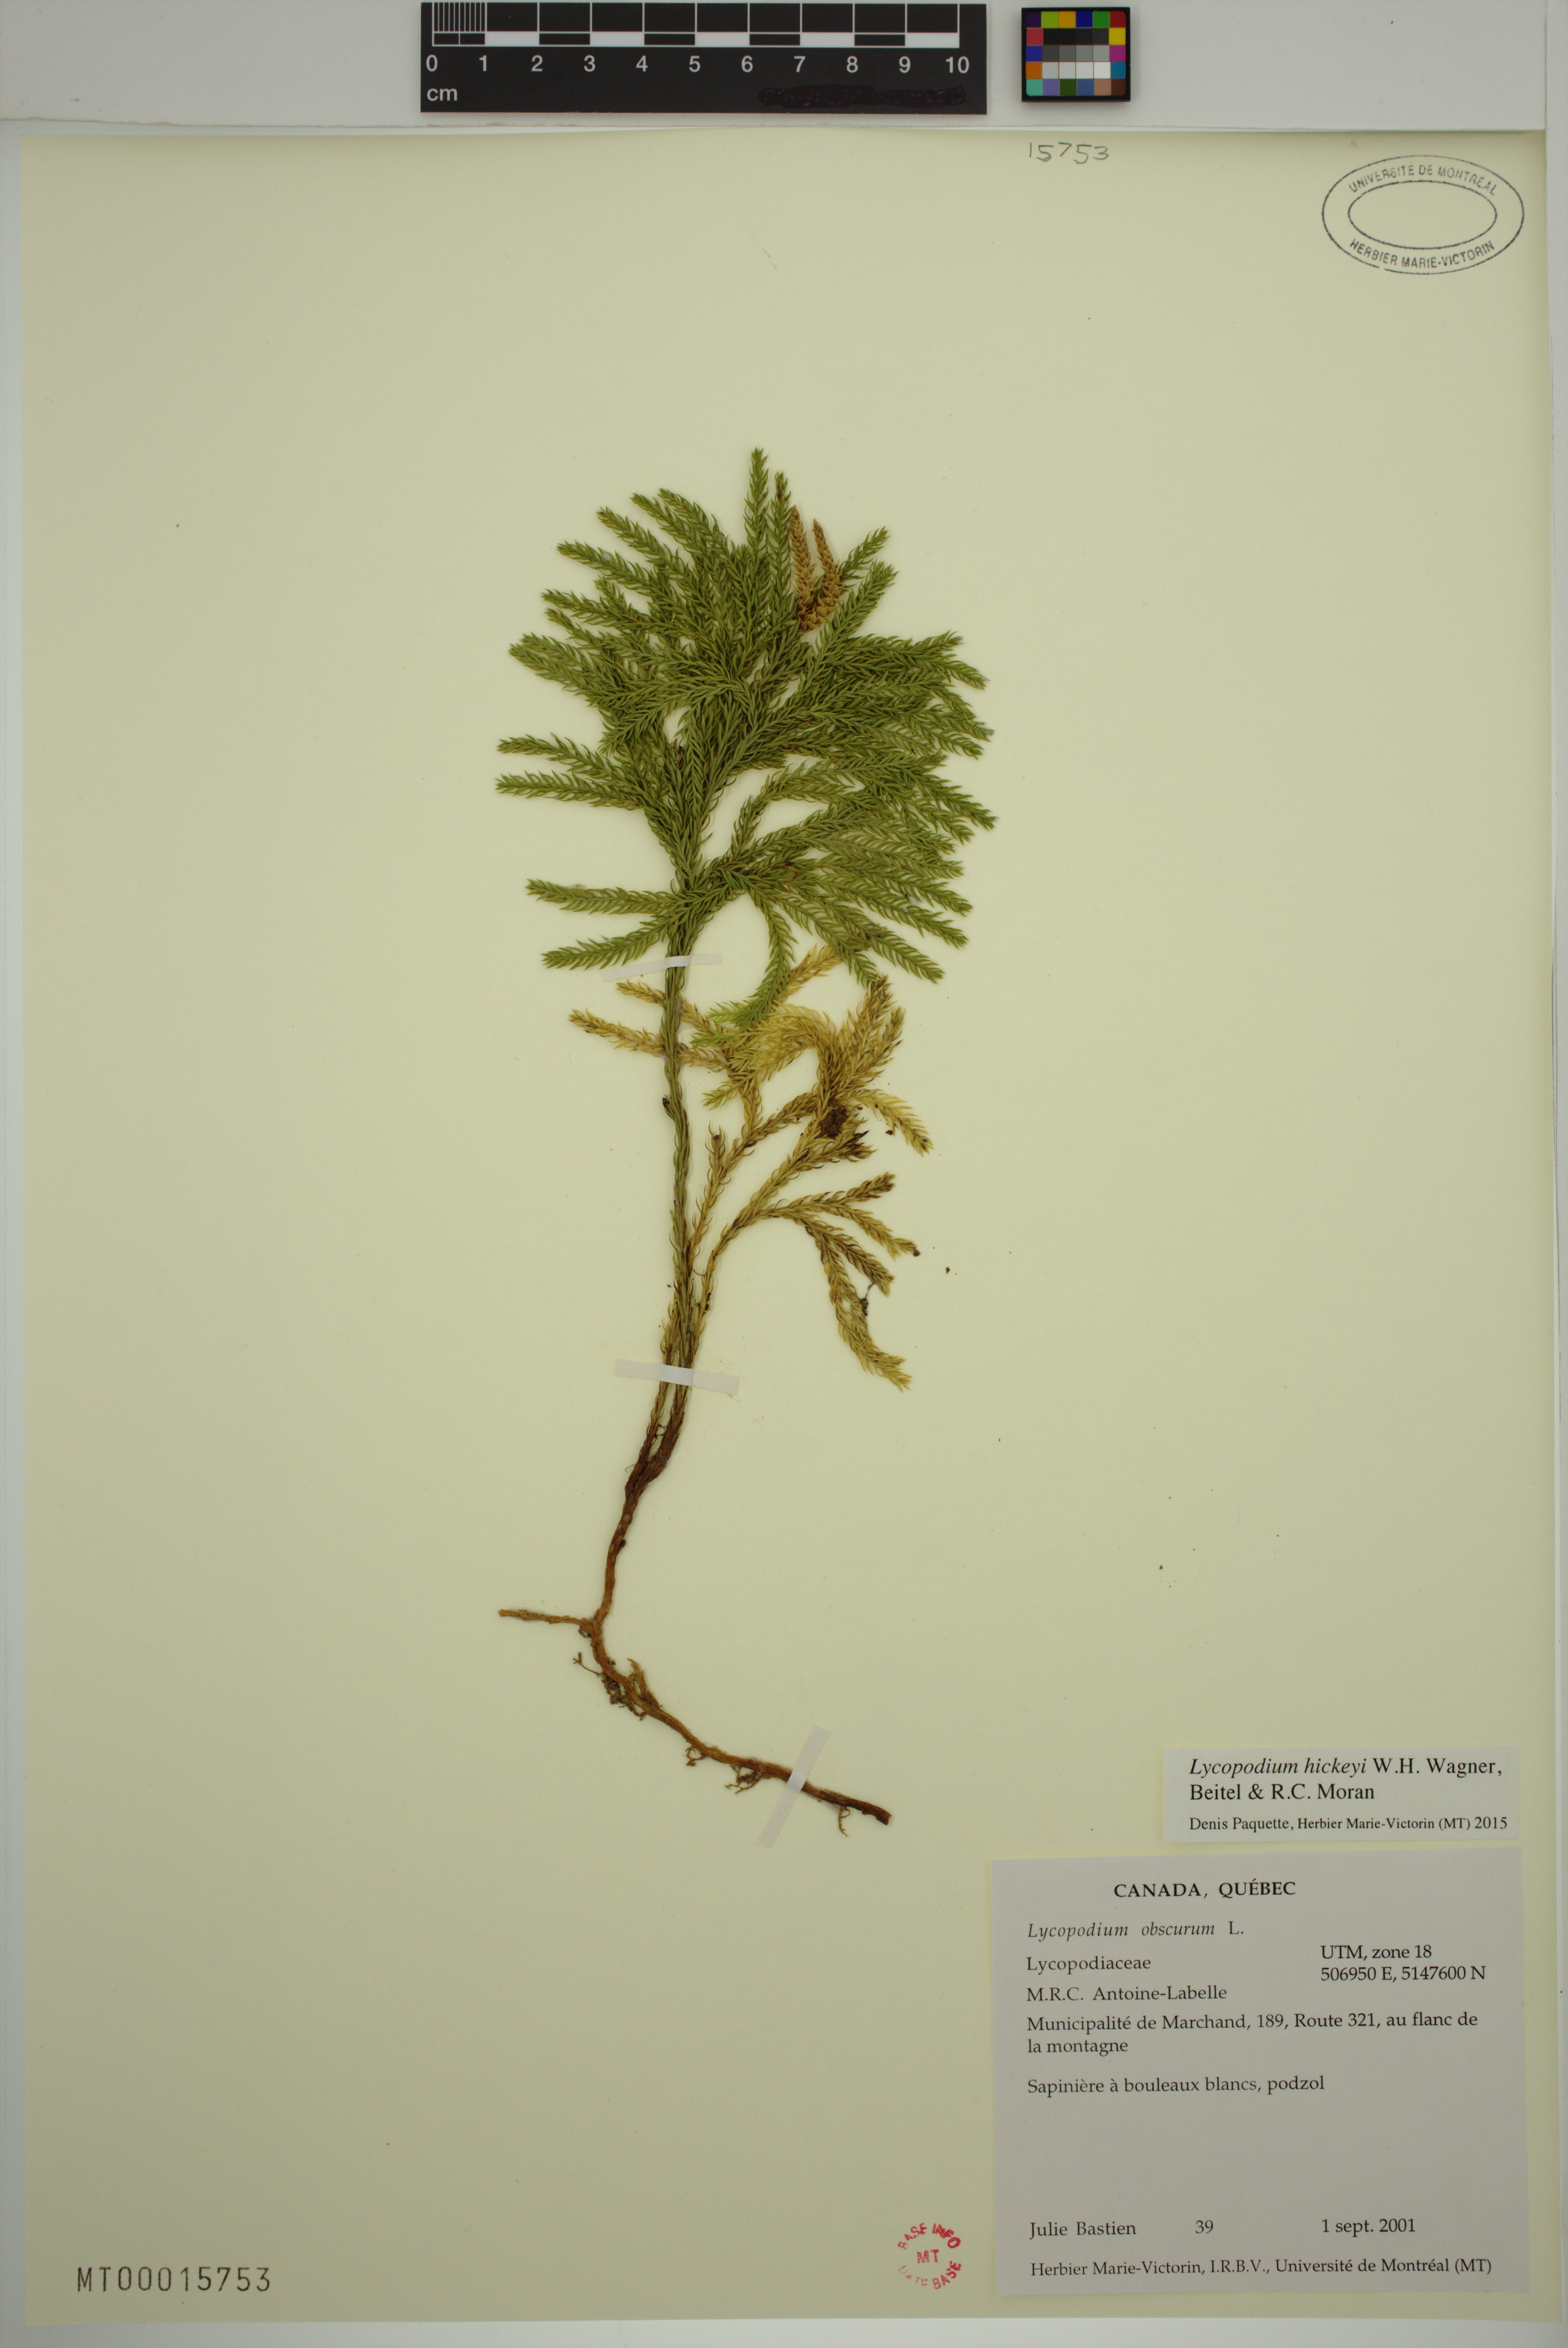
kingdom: Plantae
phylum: Tracheophyta
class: Lycopodiopsida
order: Lycopodiales
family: Lycopodiaceae
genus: Dendrolycopodium
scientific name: Dendrolycopodium hickeyi
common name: Hickey's clubmoss
